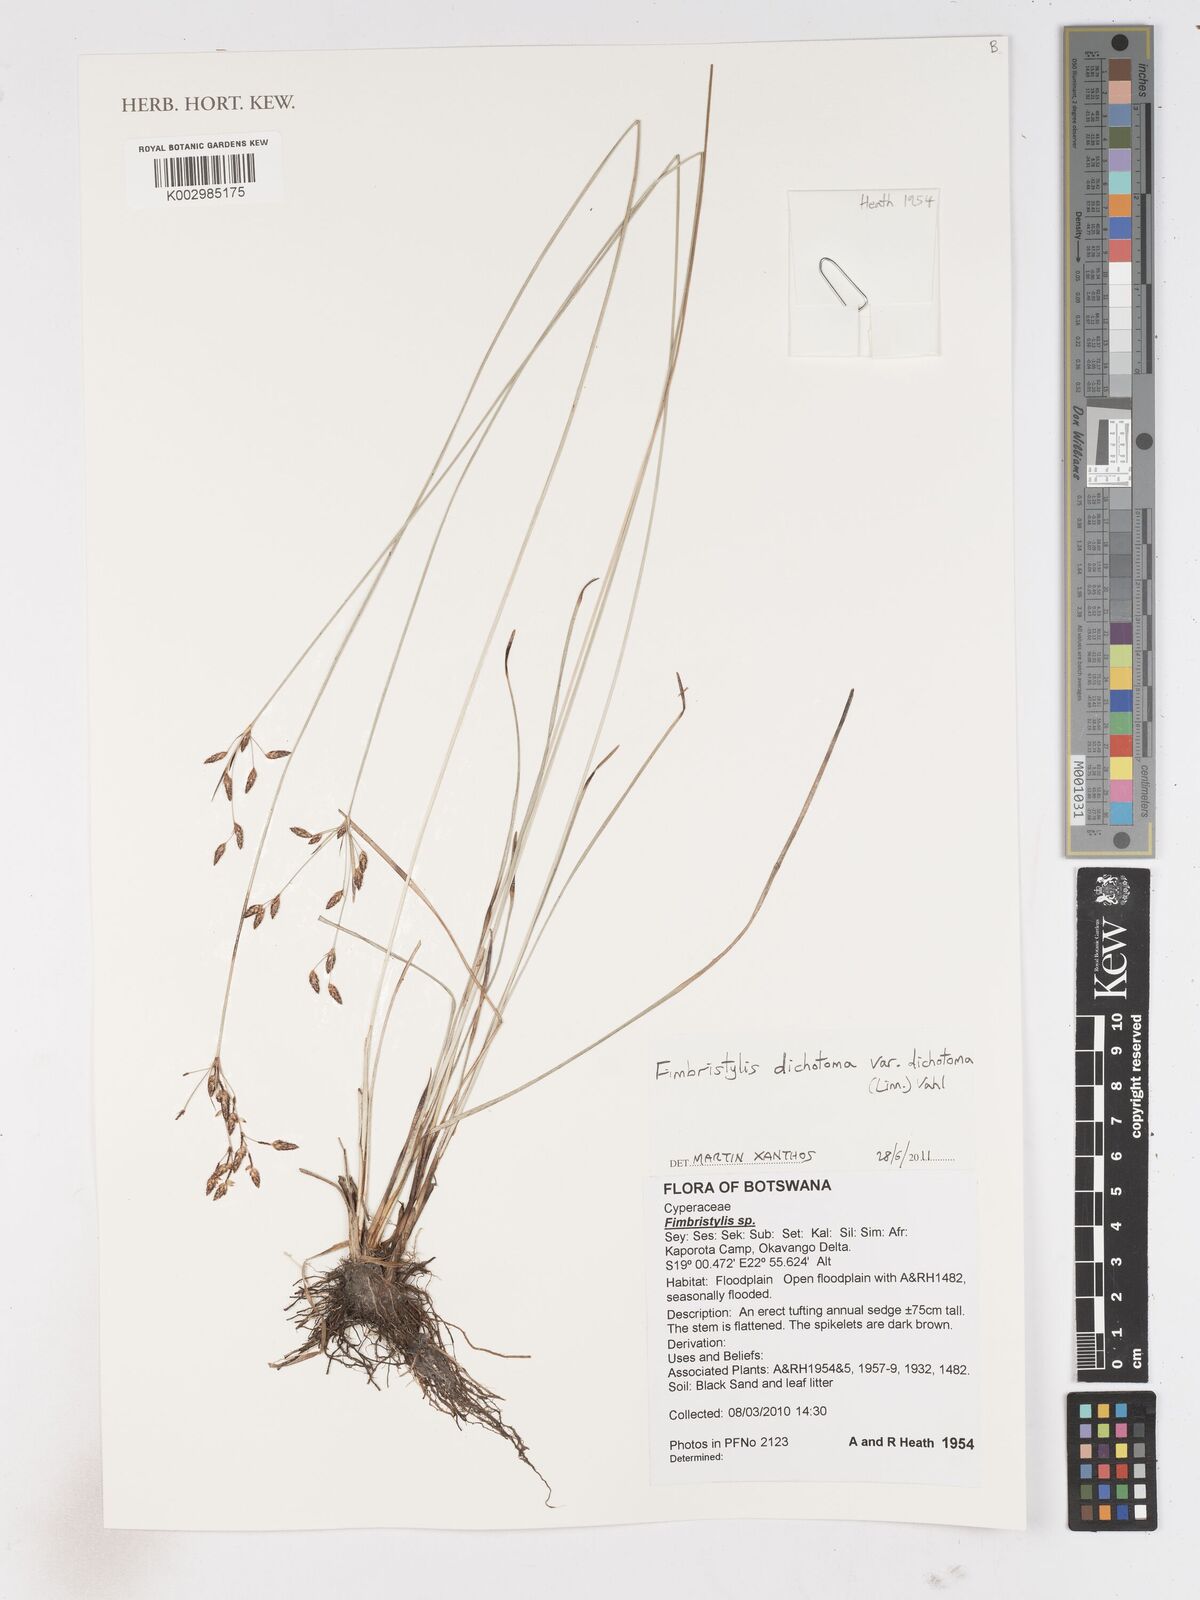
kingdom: Plantae
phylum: Tracheophyta
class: Liliopsida
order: Poales
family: Cyperaceae
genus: Fimbristylis
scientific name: Fimbristylis dichotoma
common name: Forked fimbry
